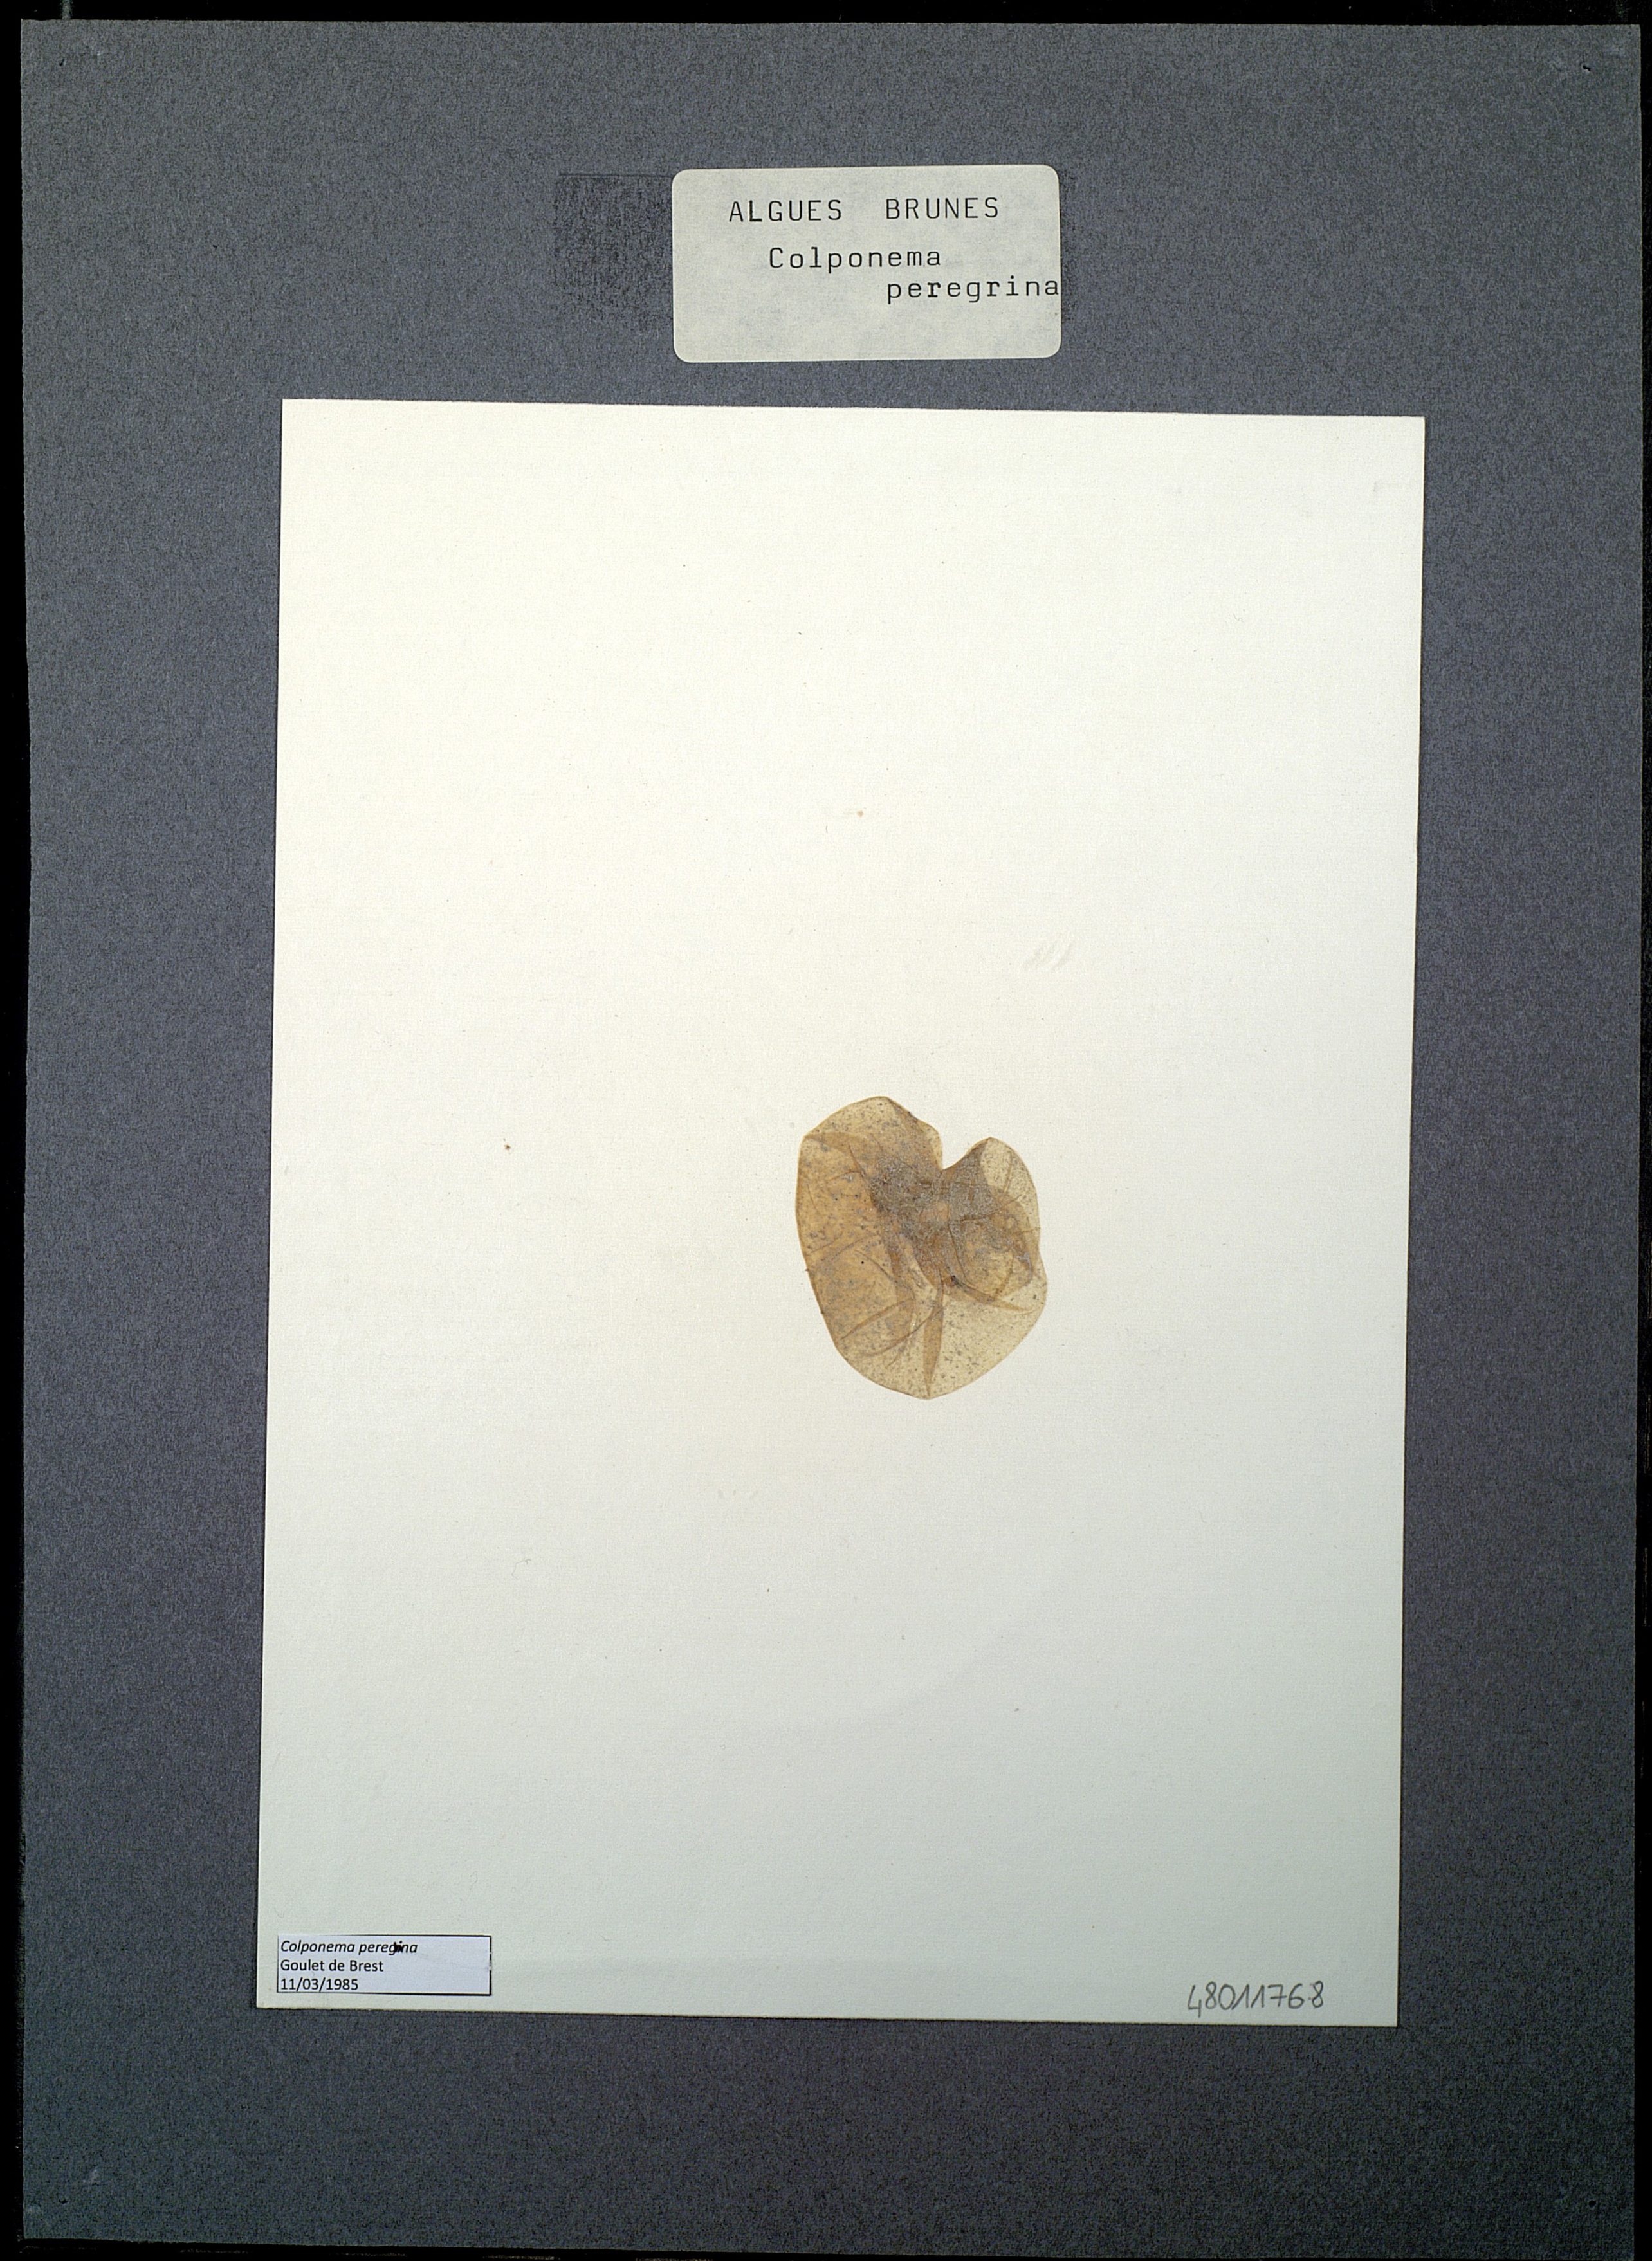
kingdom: Protozoa
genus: Colponema
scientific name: Colponema
